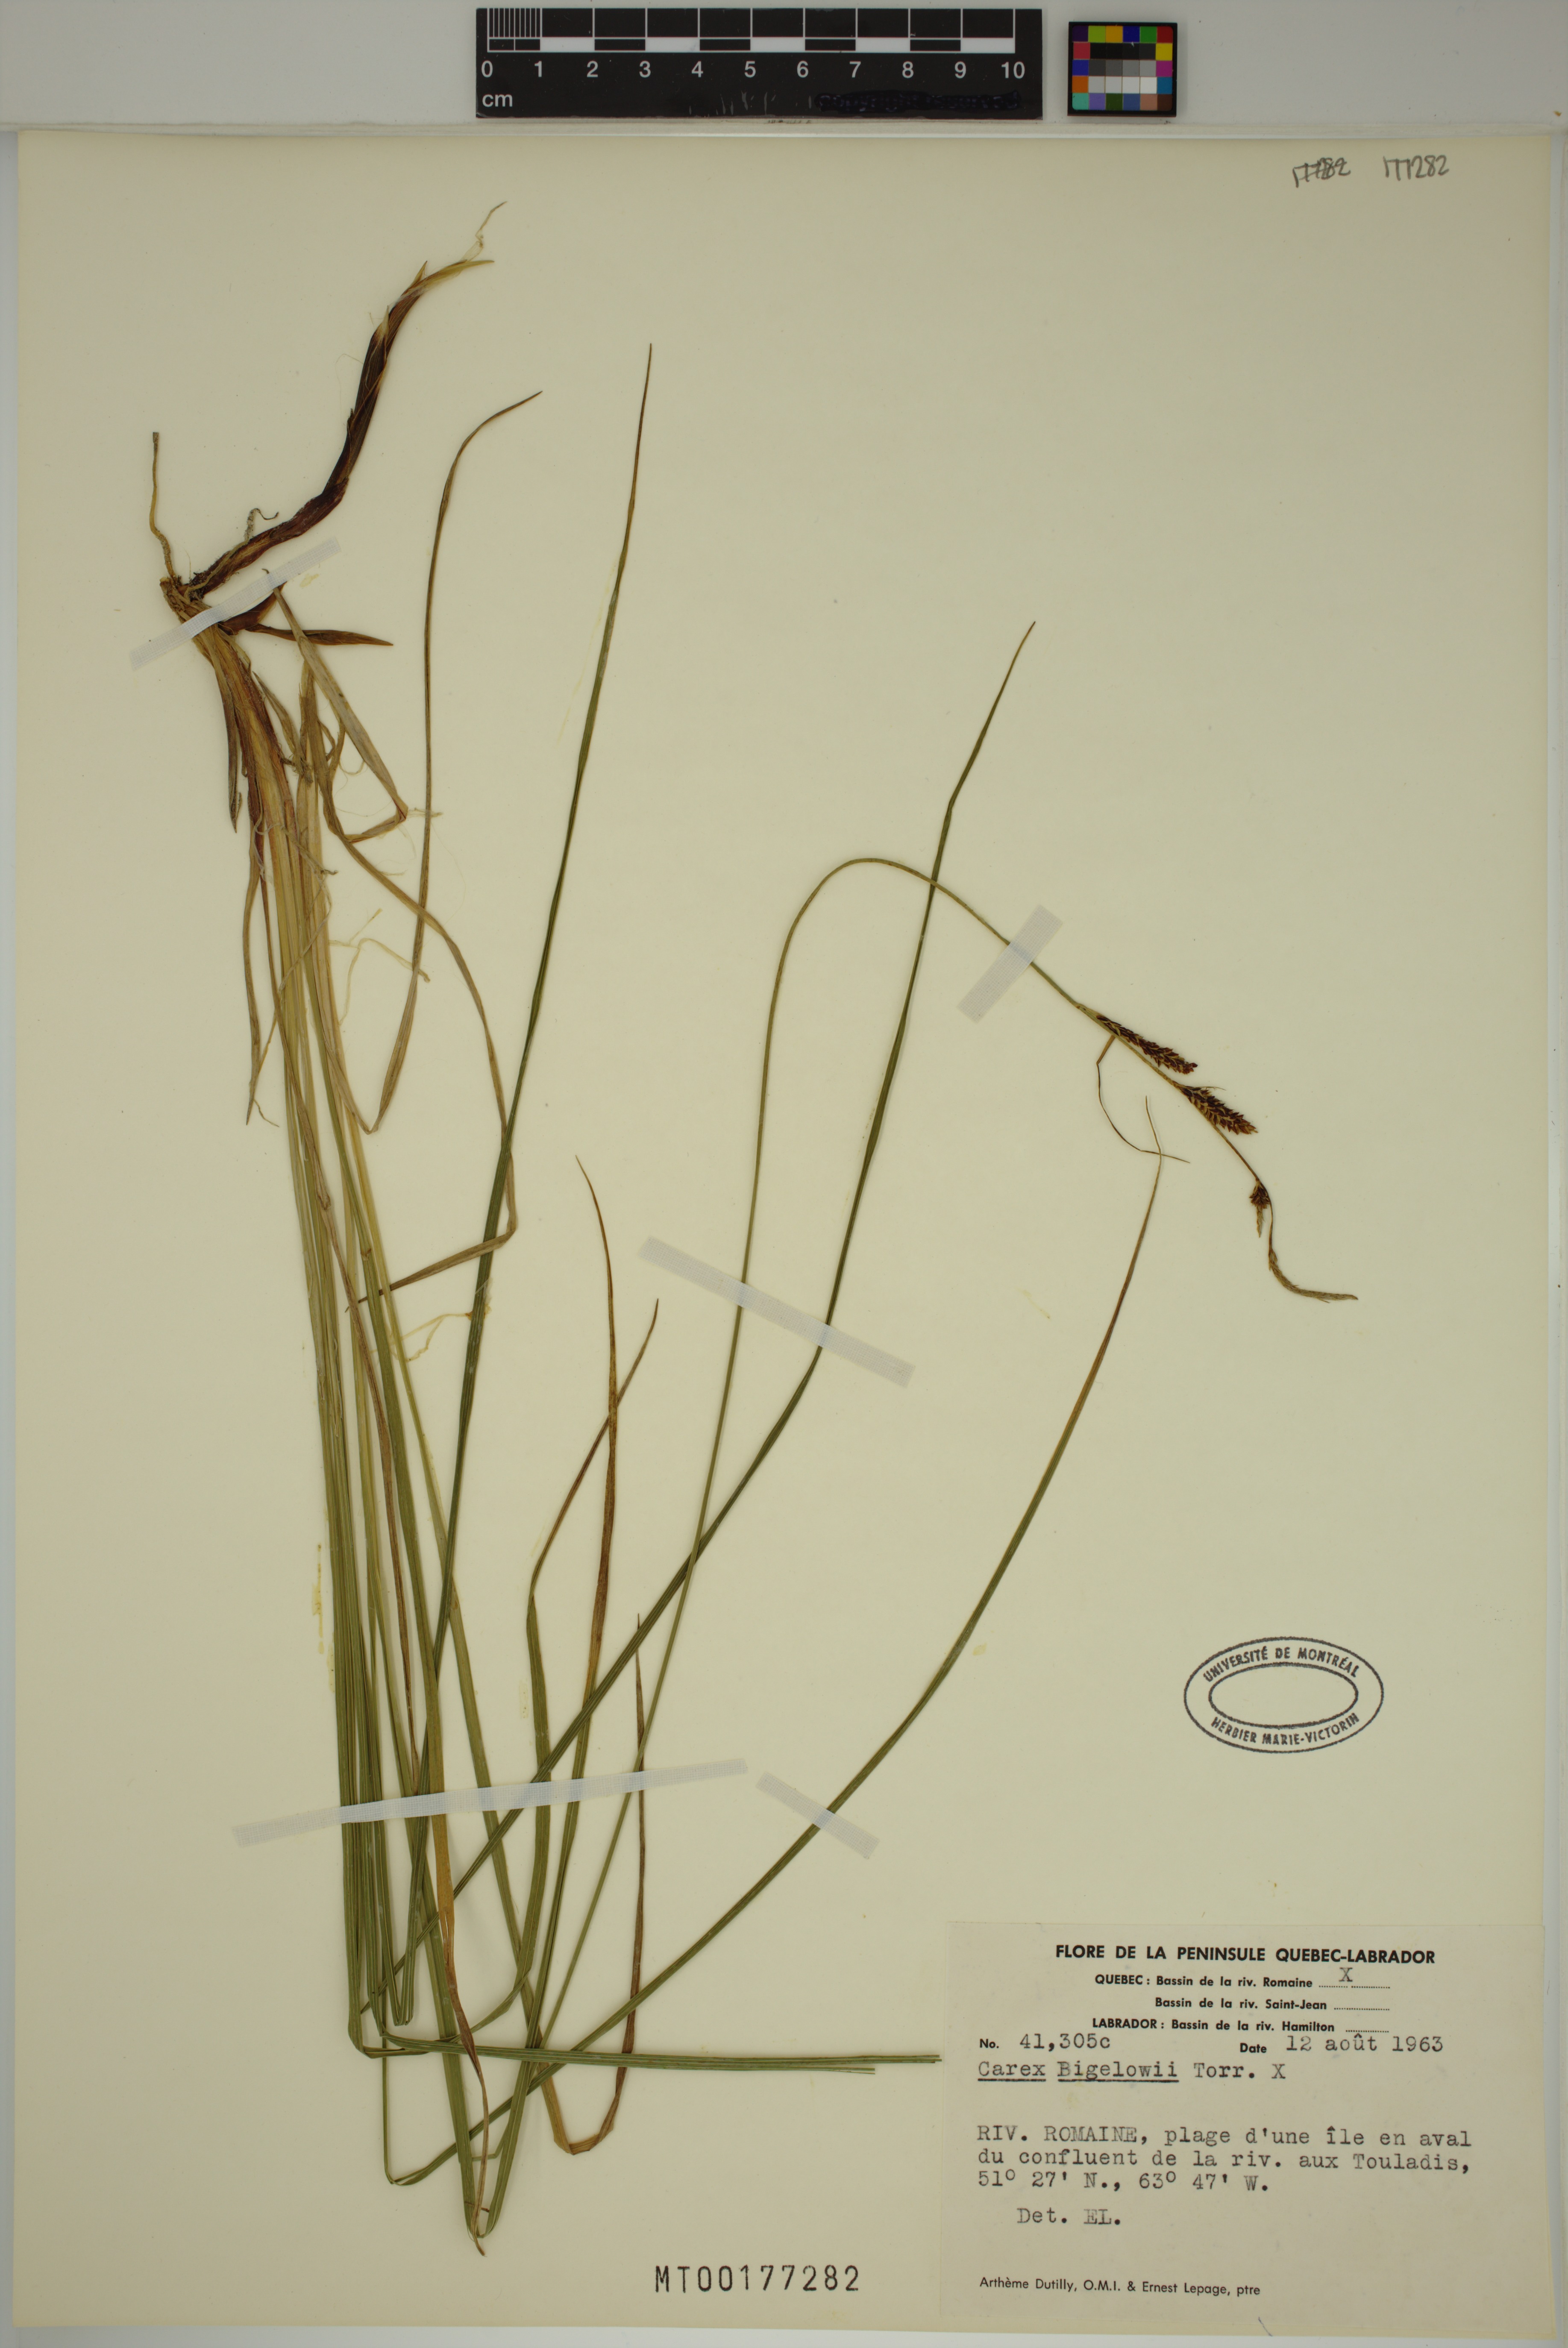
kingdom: Plantae
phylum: Tracheophyta
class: Liliopsida
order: Poales
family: Cyperaceae
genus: Carex
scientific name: Carex bigelowii
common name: Stiff sedge
